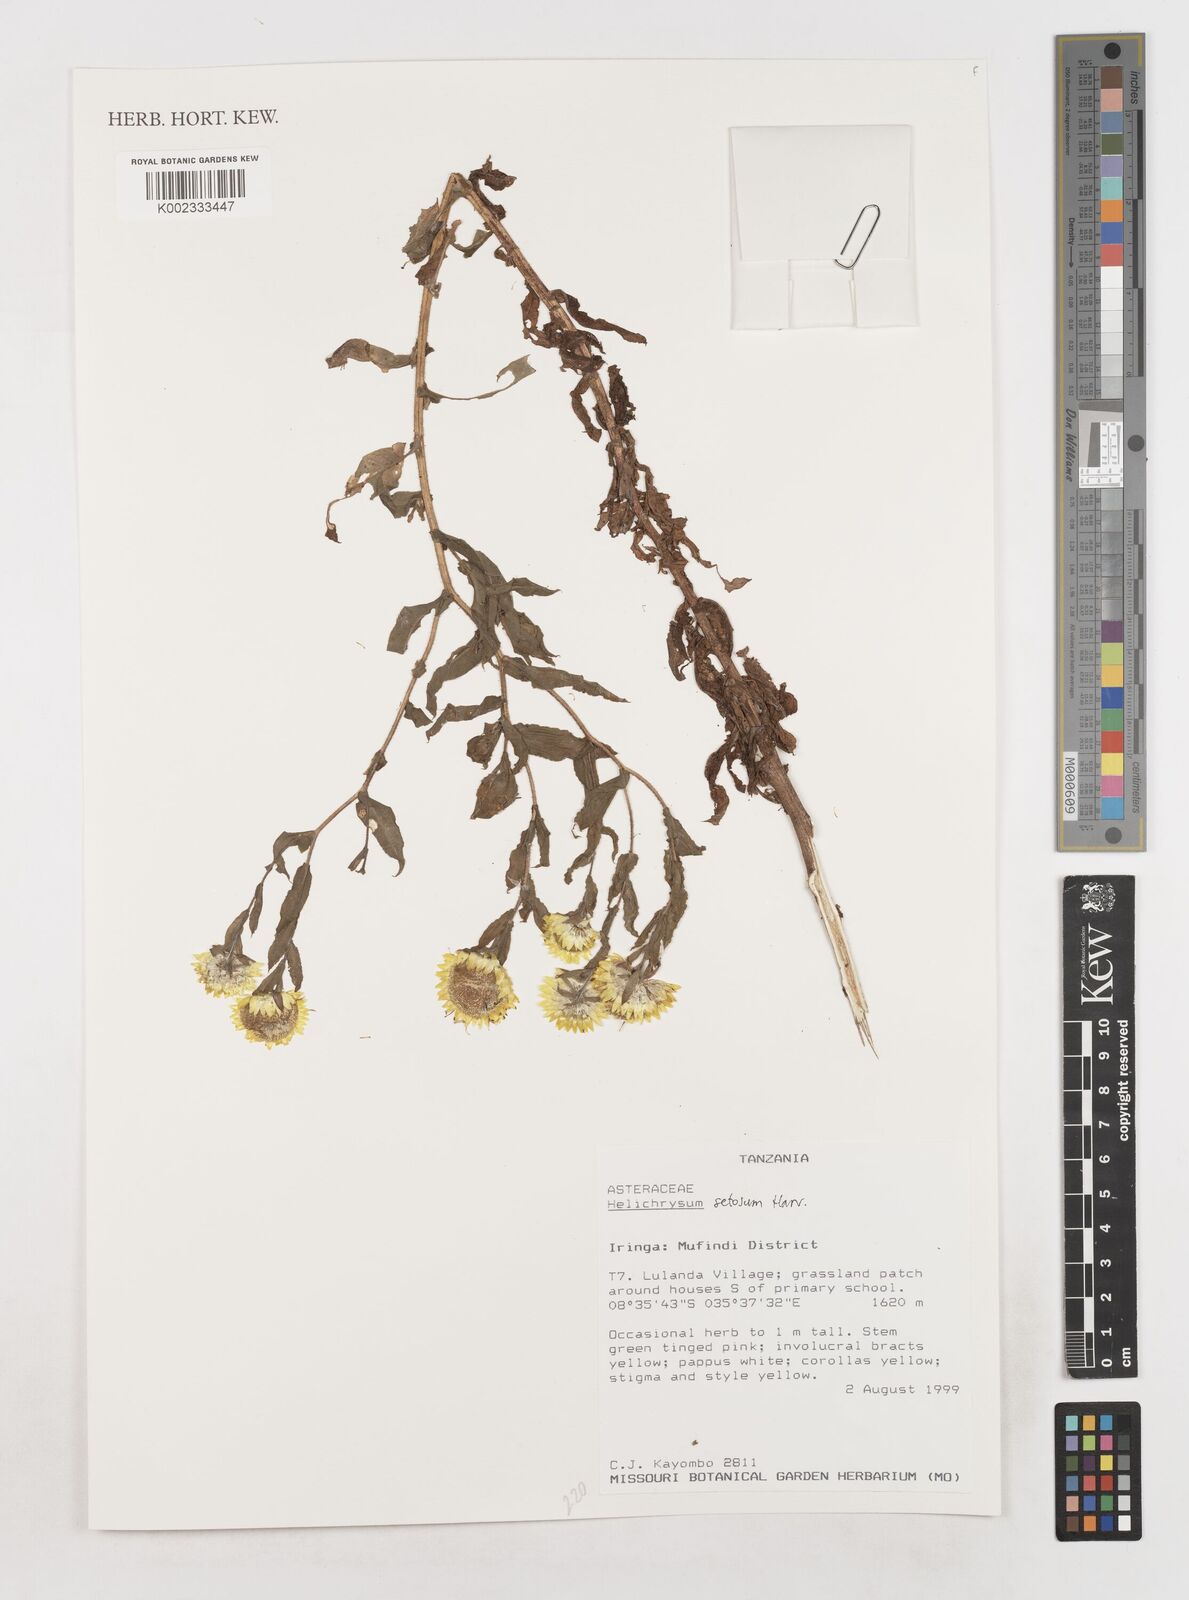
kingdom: Plantae
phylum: Tracheophyta
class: Magnoliopsida
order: Asterales
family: Asteraceae
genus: Helichrysum
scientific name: Helichrysum setosum
